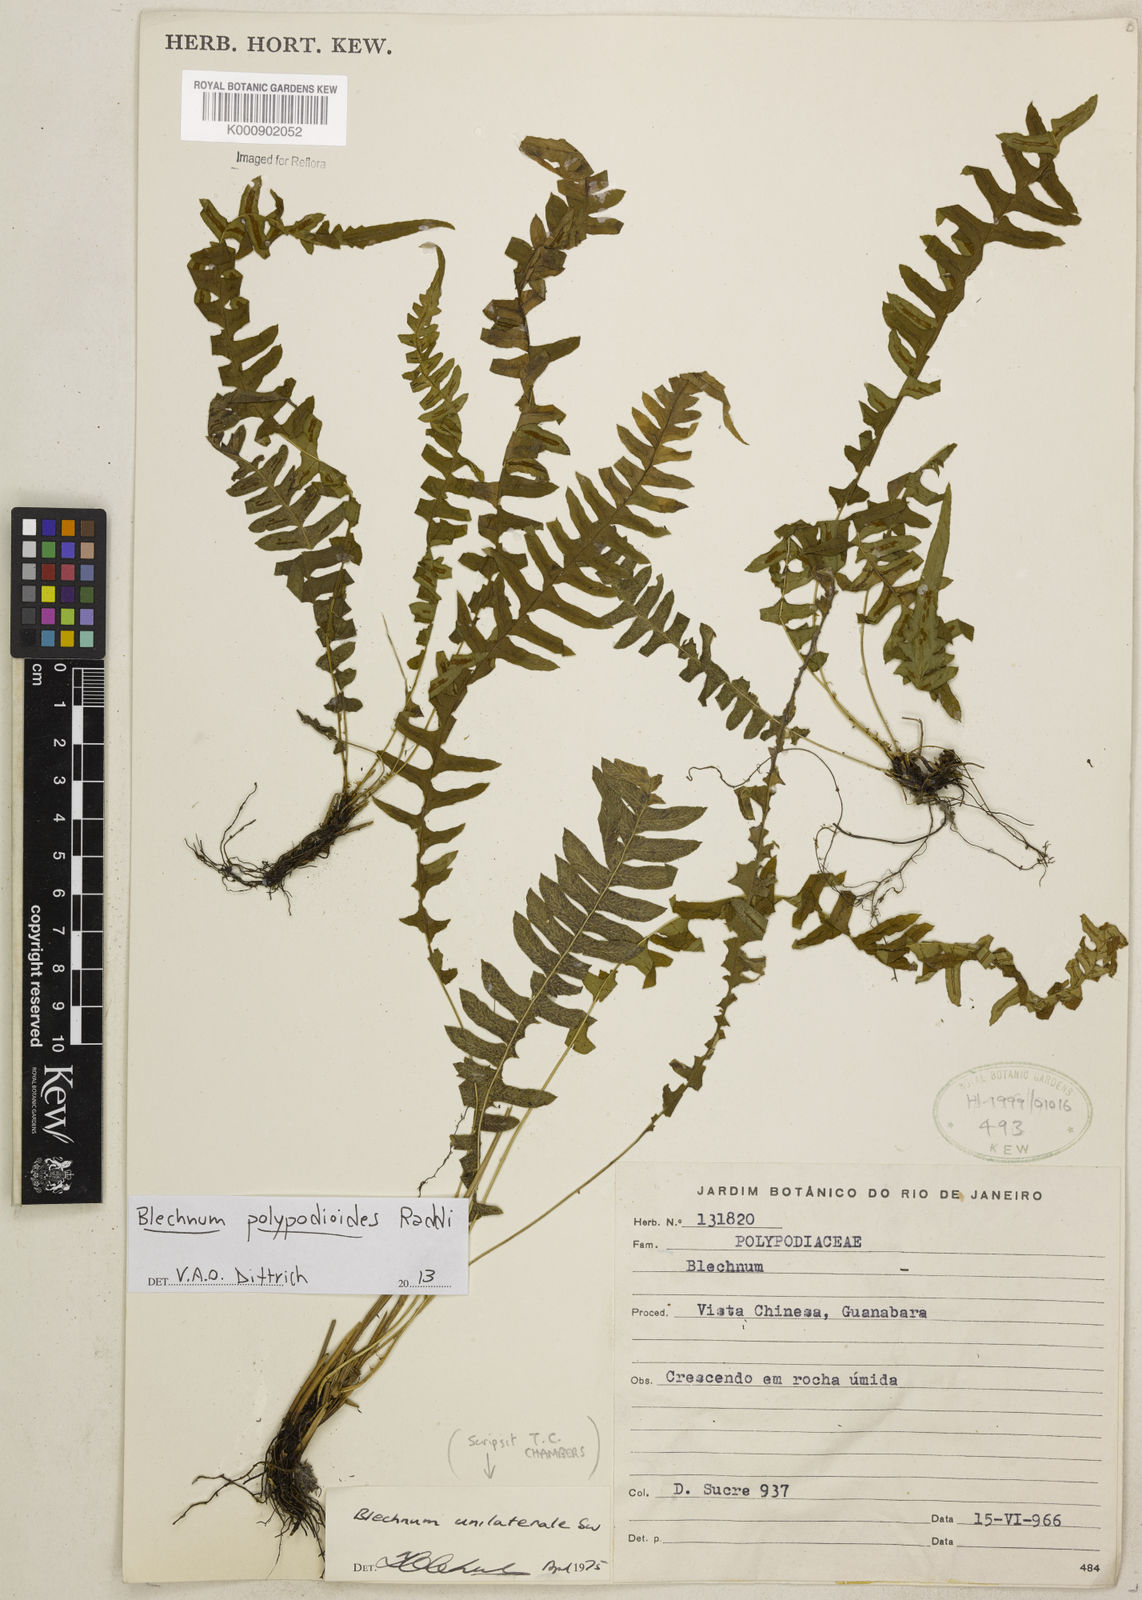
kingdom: Plantae
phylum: Tracheophyta
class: Polypodiopsida
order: Polypodiales
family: Blechnaceae
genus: Blechnum
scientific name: Blechnum polypodioides
